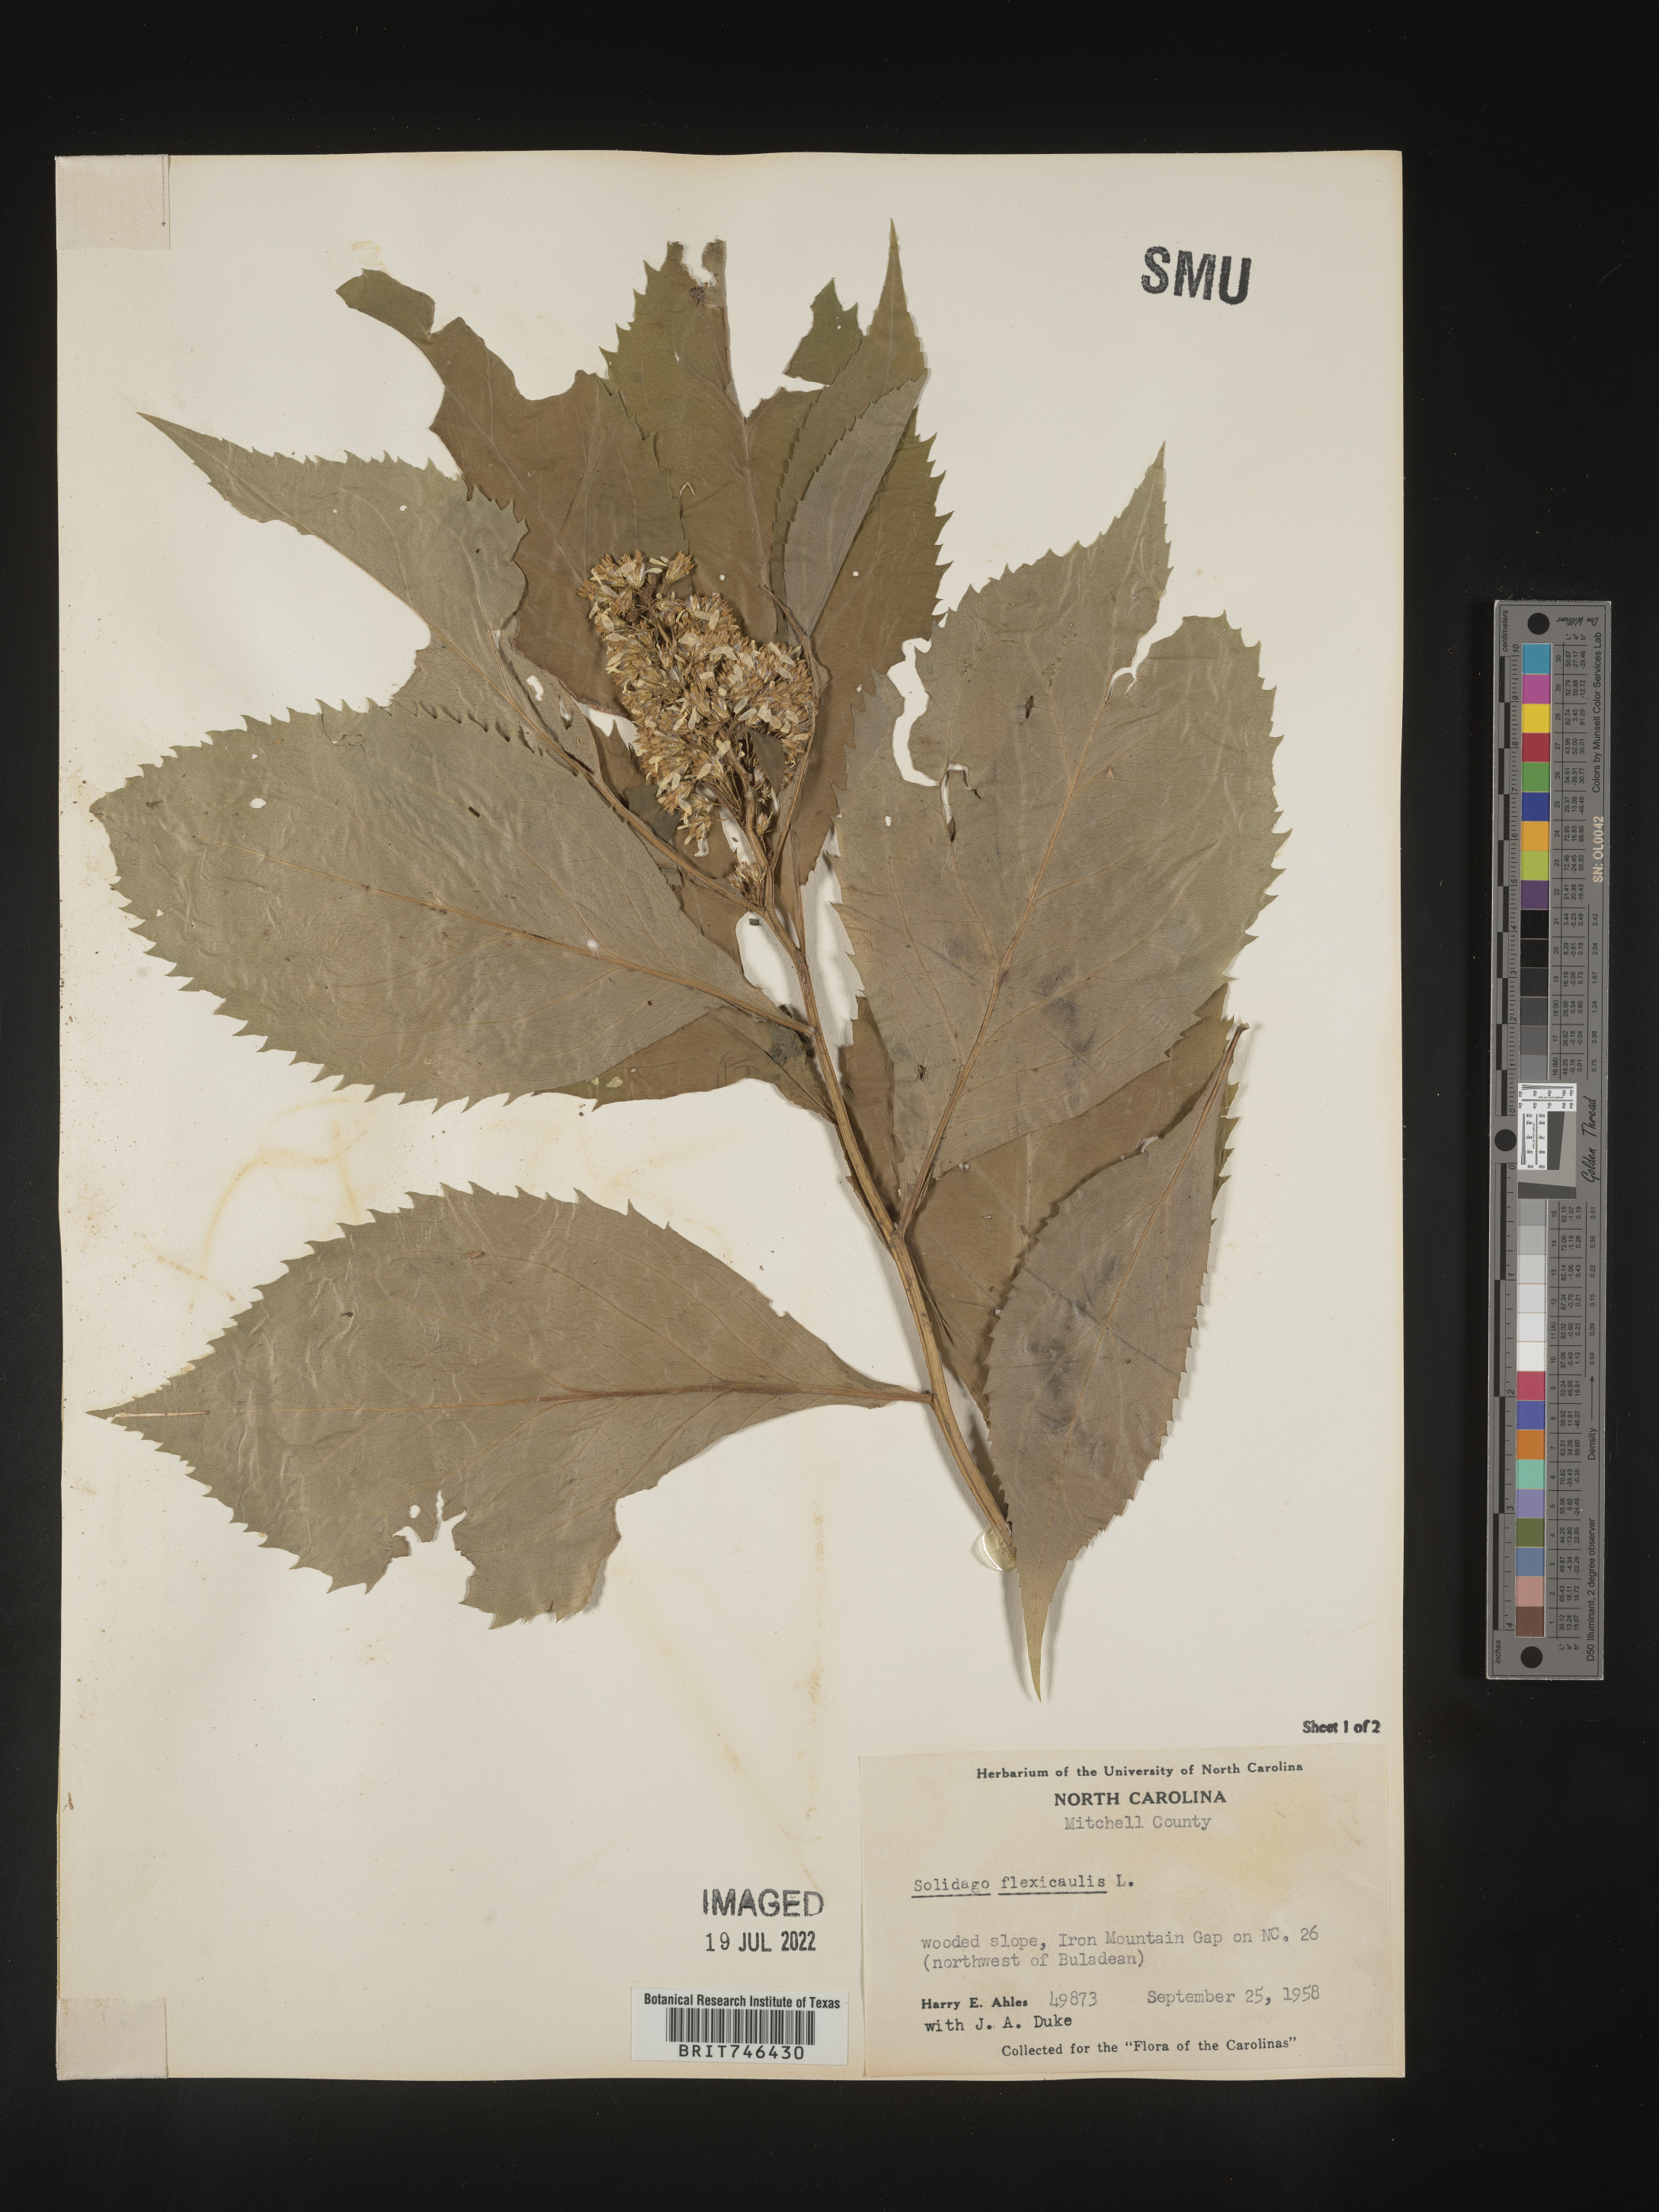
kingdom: Plantae
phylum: Tracheophyta
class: Magnoliopsida
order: Asterales
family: Asteraceae
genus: Solidago
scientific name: Solidago flaccidifolia
